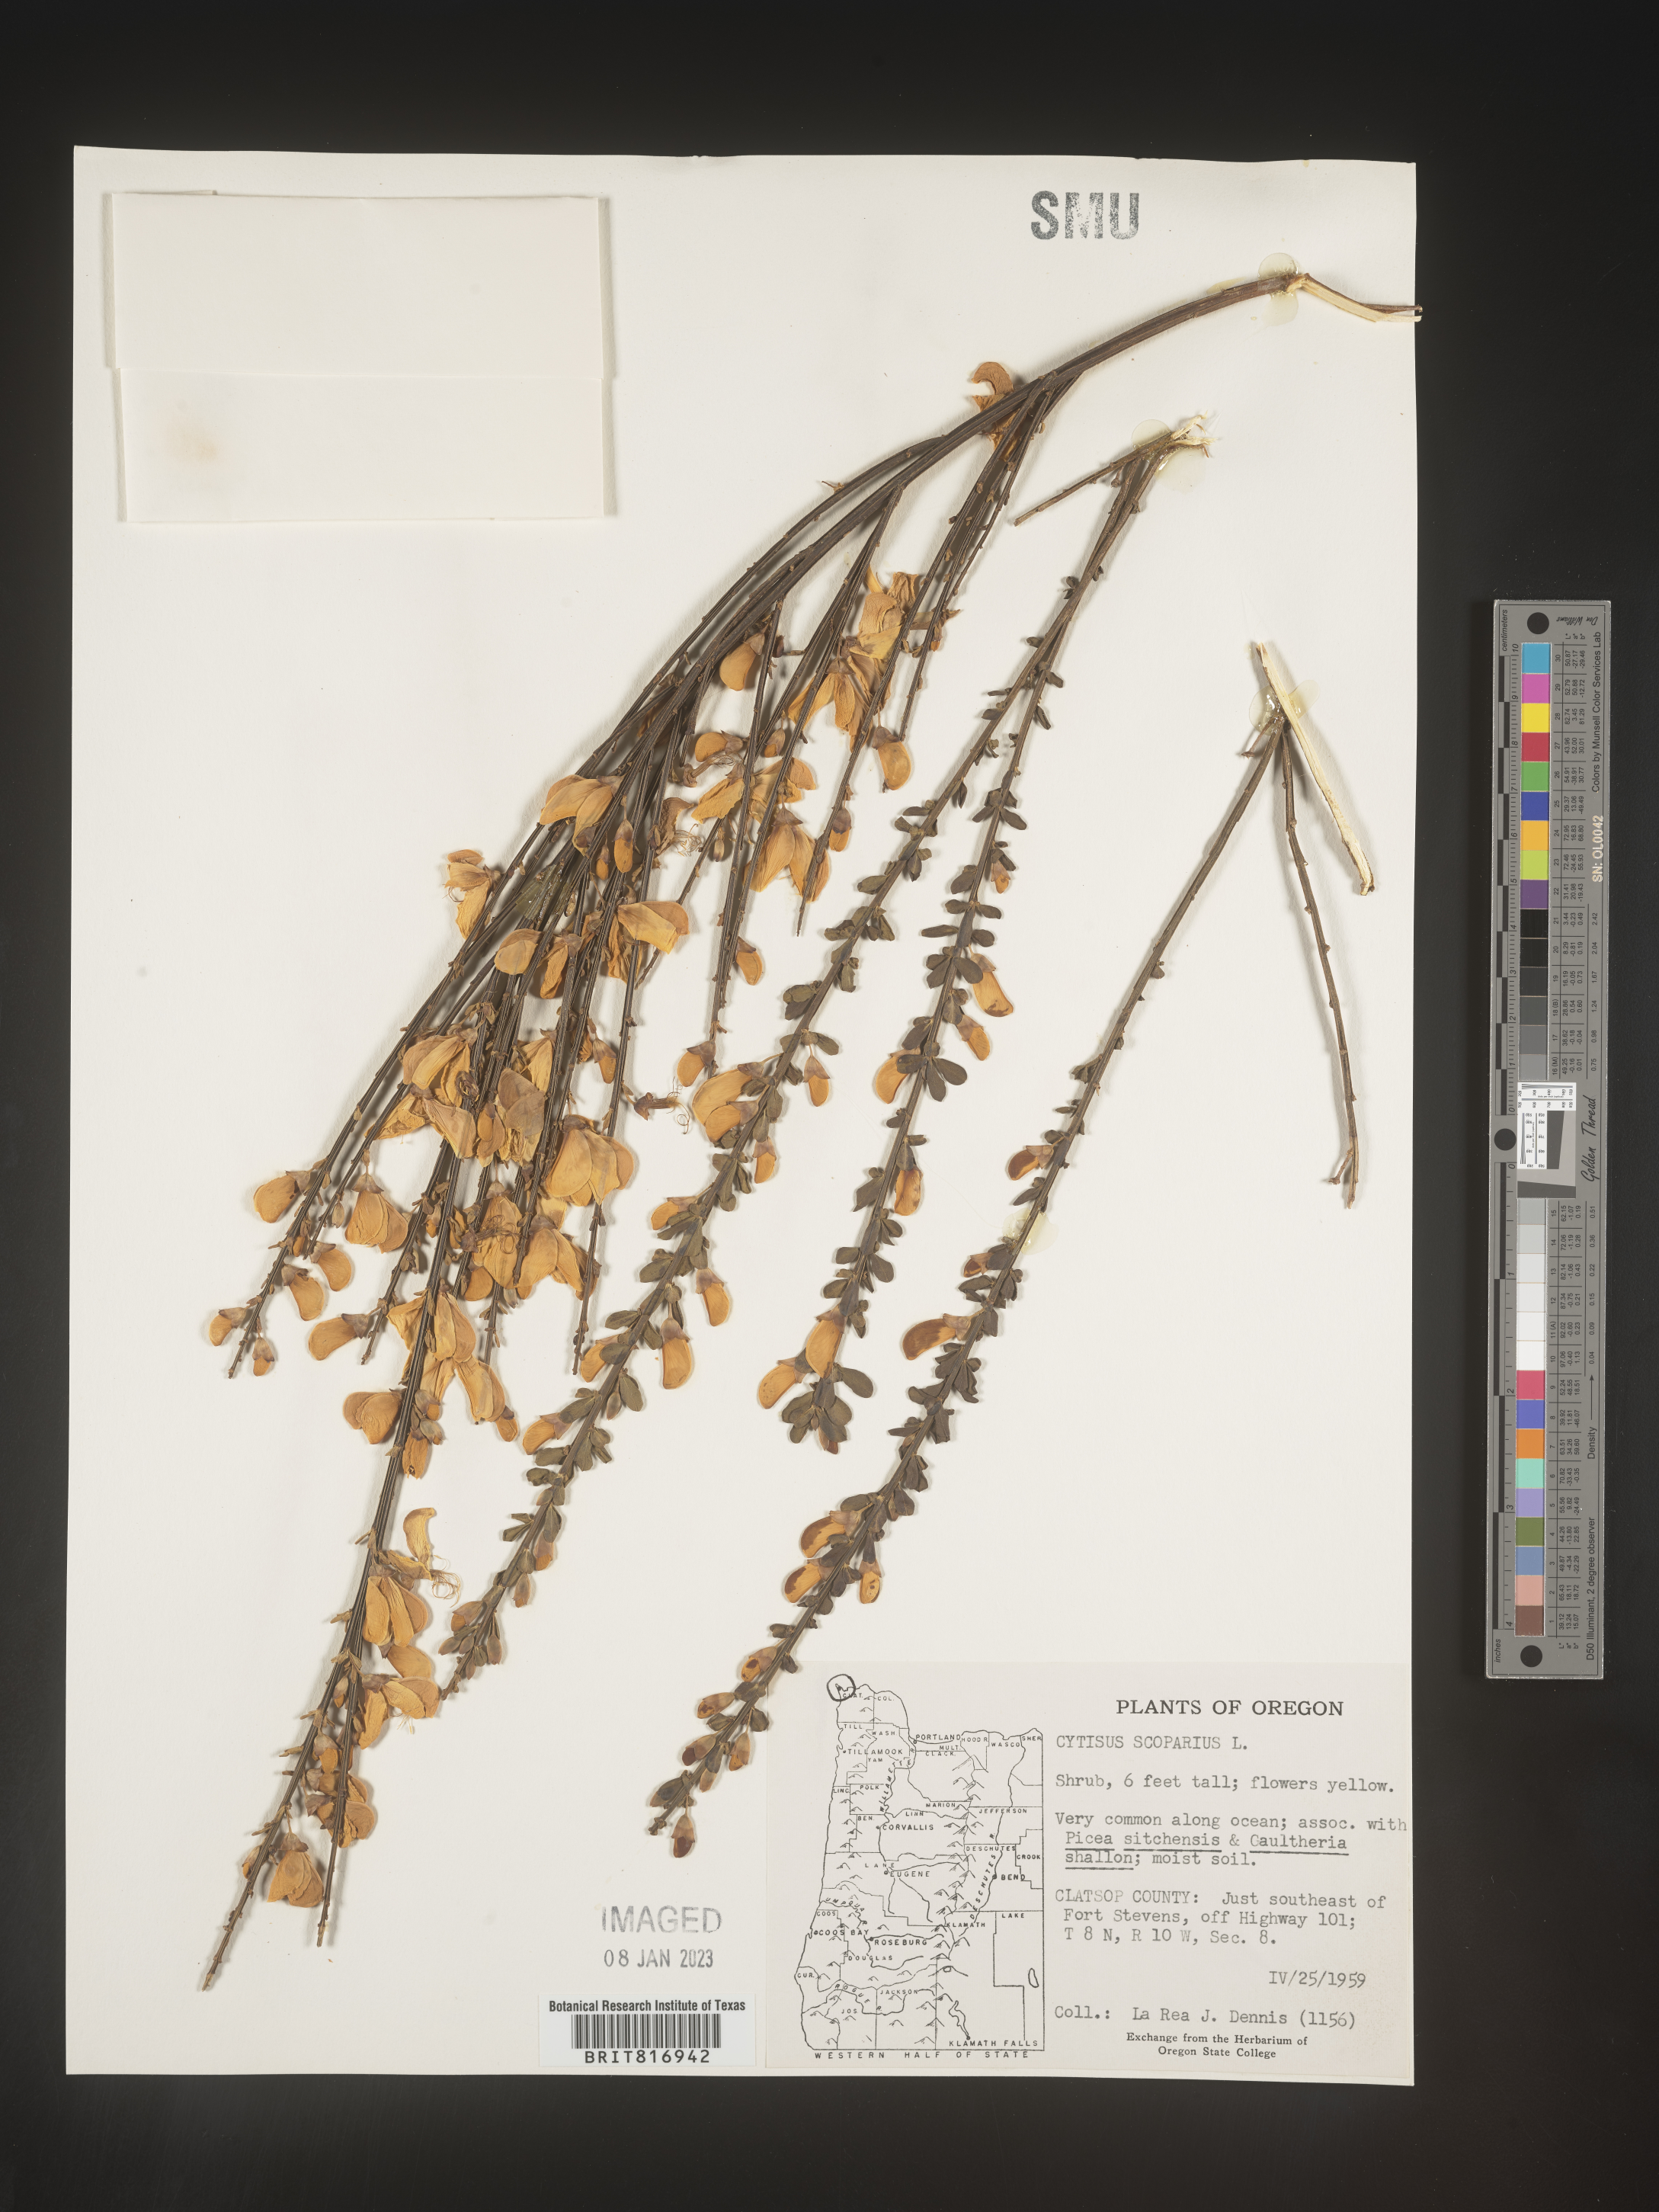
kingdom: Plantae
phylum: Tracheophyta
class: Magnoliopsida
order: Fabales
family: Fabaceae
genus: Cytisus
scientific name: Cytisus
